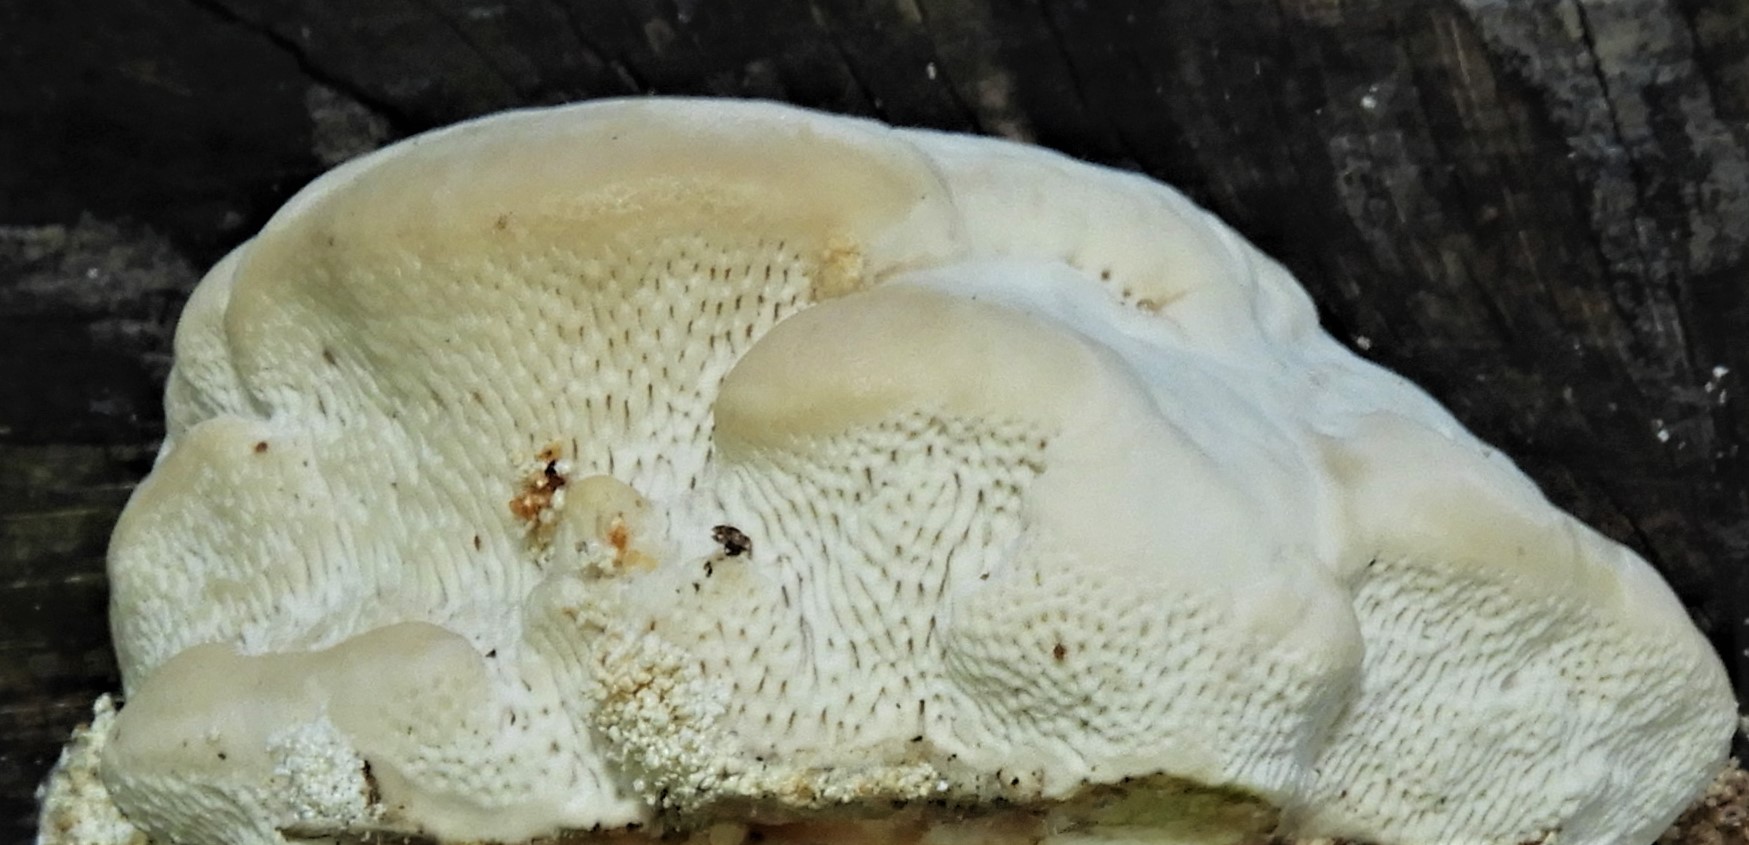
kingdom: Fungi
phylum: Basidiomycota
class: Agaricomycetes
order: Polyporales
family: Polyporaceae
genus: Trametes
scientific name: Trametes gibbosa
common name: puklet læderporesvamp
